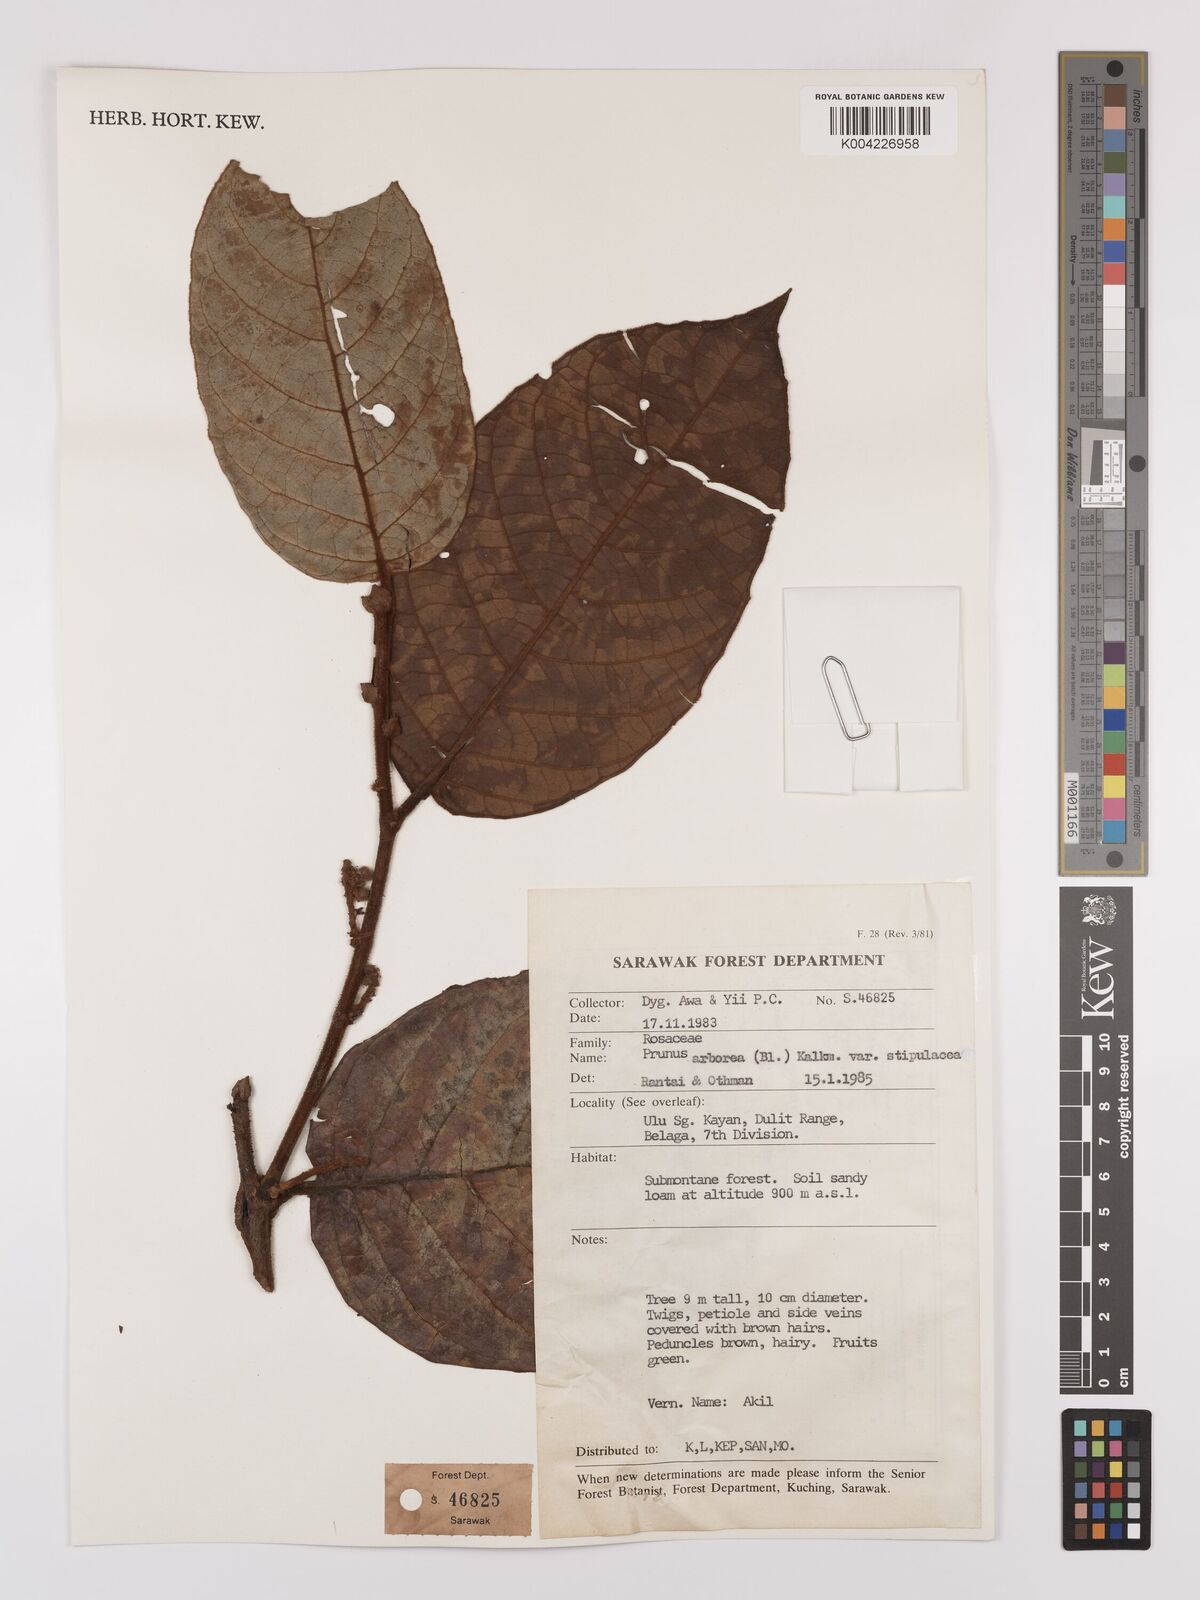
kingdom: Plantae
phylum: Tracheophyta
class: Magnoliopsida
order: Rosales
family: Rosaceae
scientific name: Rosaceae
